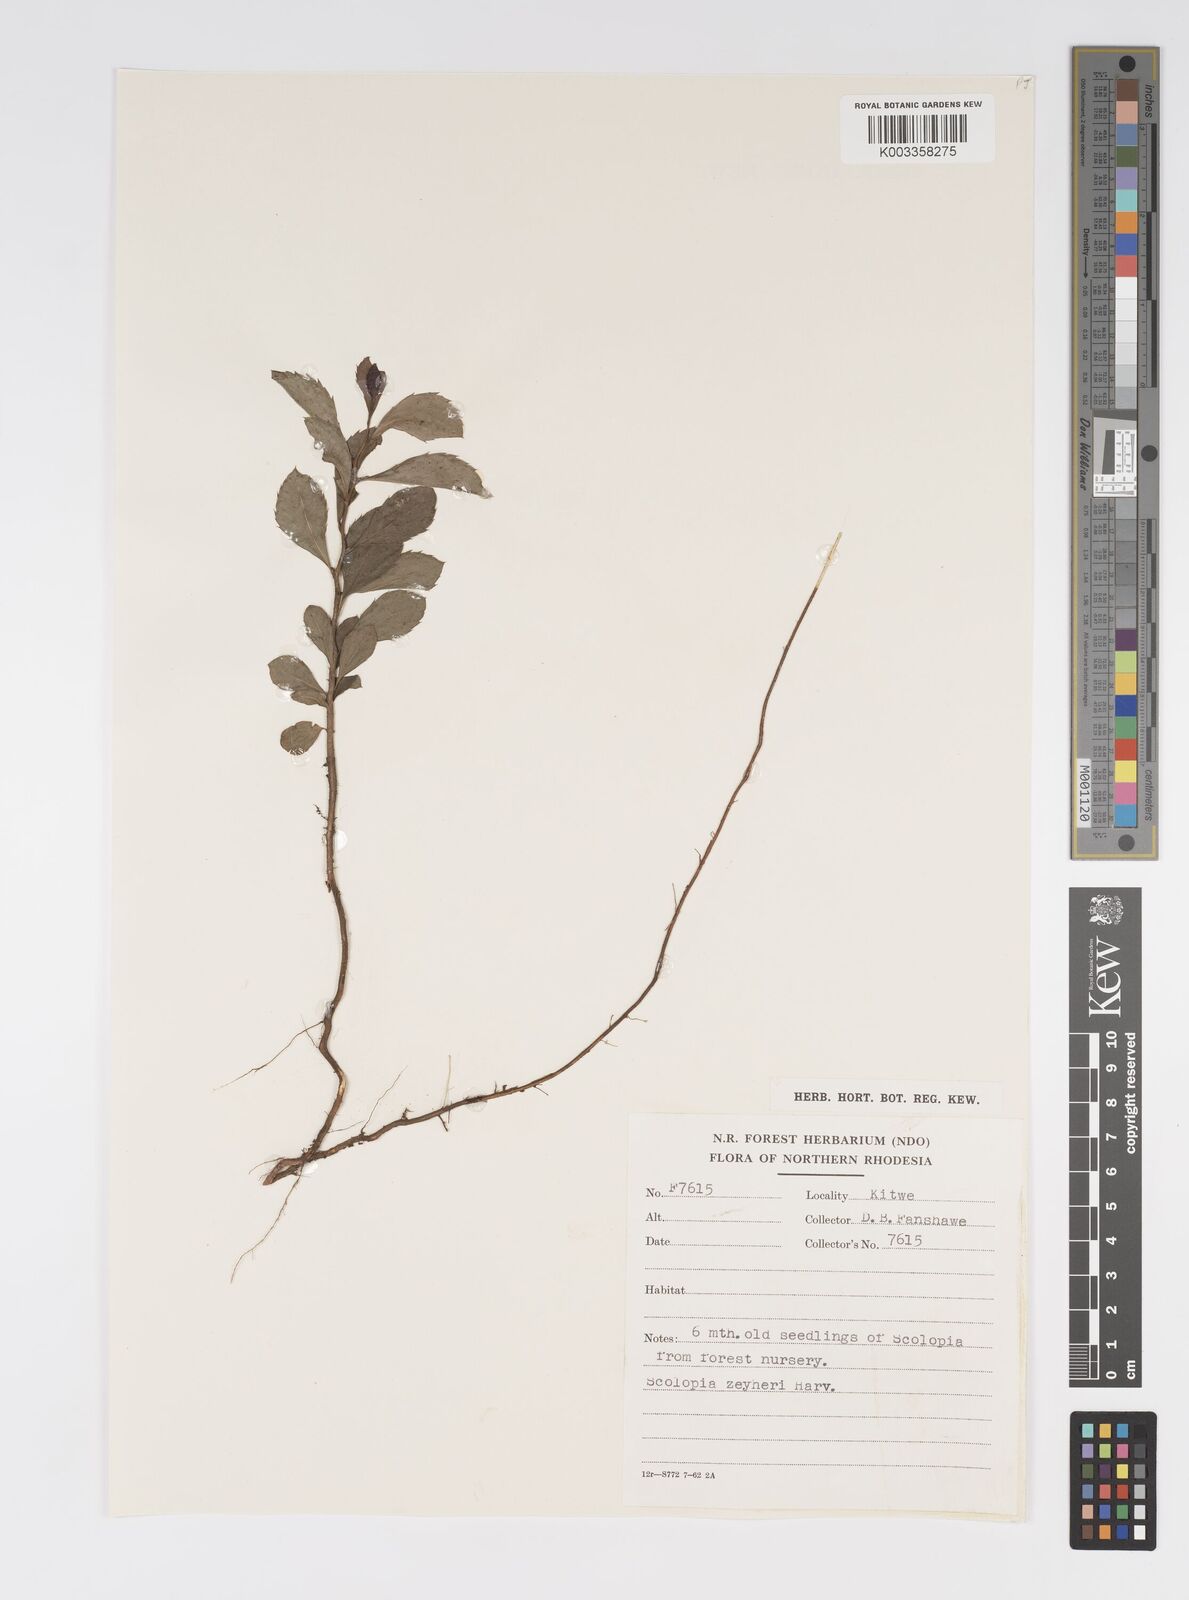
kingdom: Plantae
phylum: Tracheophyta
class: Magnoliopsida
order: Malpighiales
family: Salicaceae
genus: Scolopia
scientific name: Scolopia zeyheri
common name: Thorn pear
